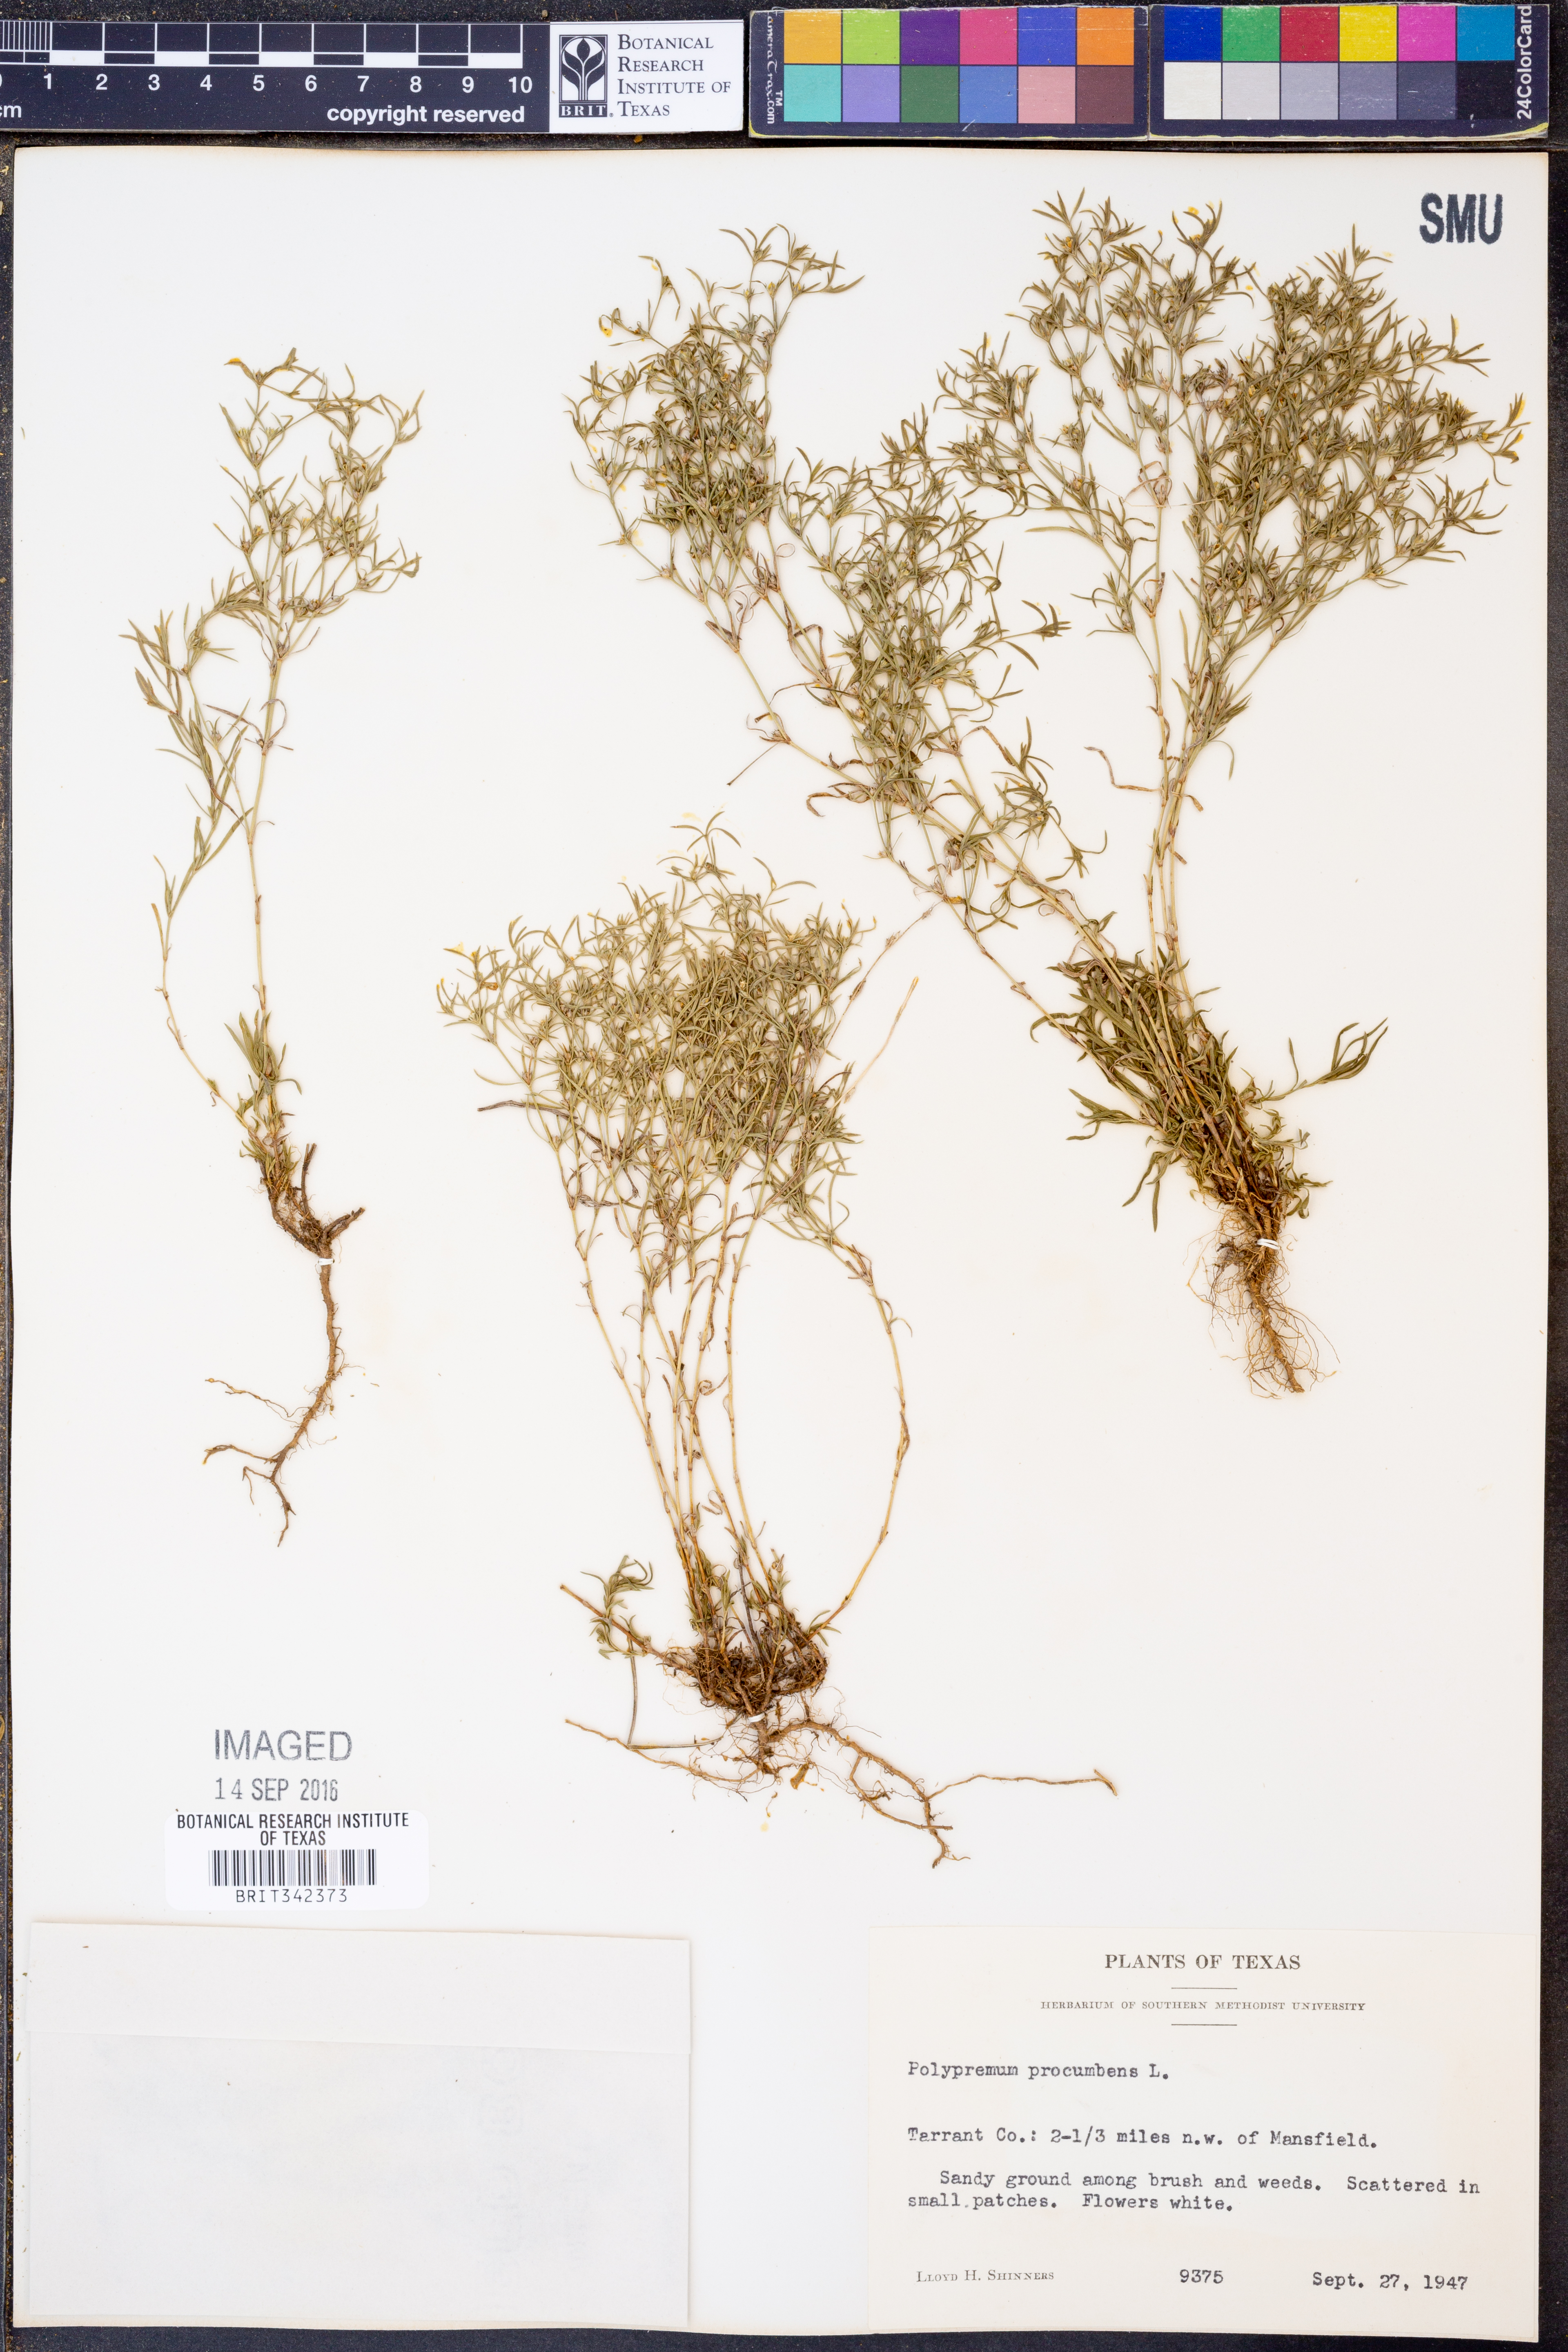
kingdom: Plantae
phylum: Tracheophyta
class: Magnoliopsida
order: Lamiales
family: Tetrachondraceae
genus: Polypremum
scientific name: Polypremum procumbens
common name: Juniper-leaf
